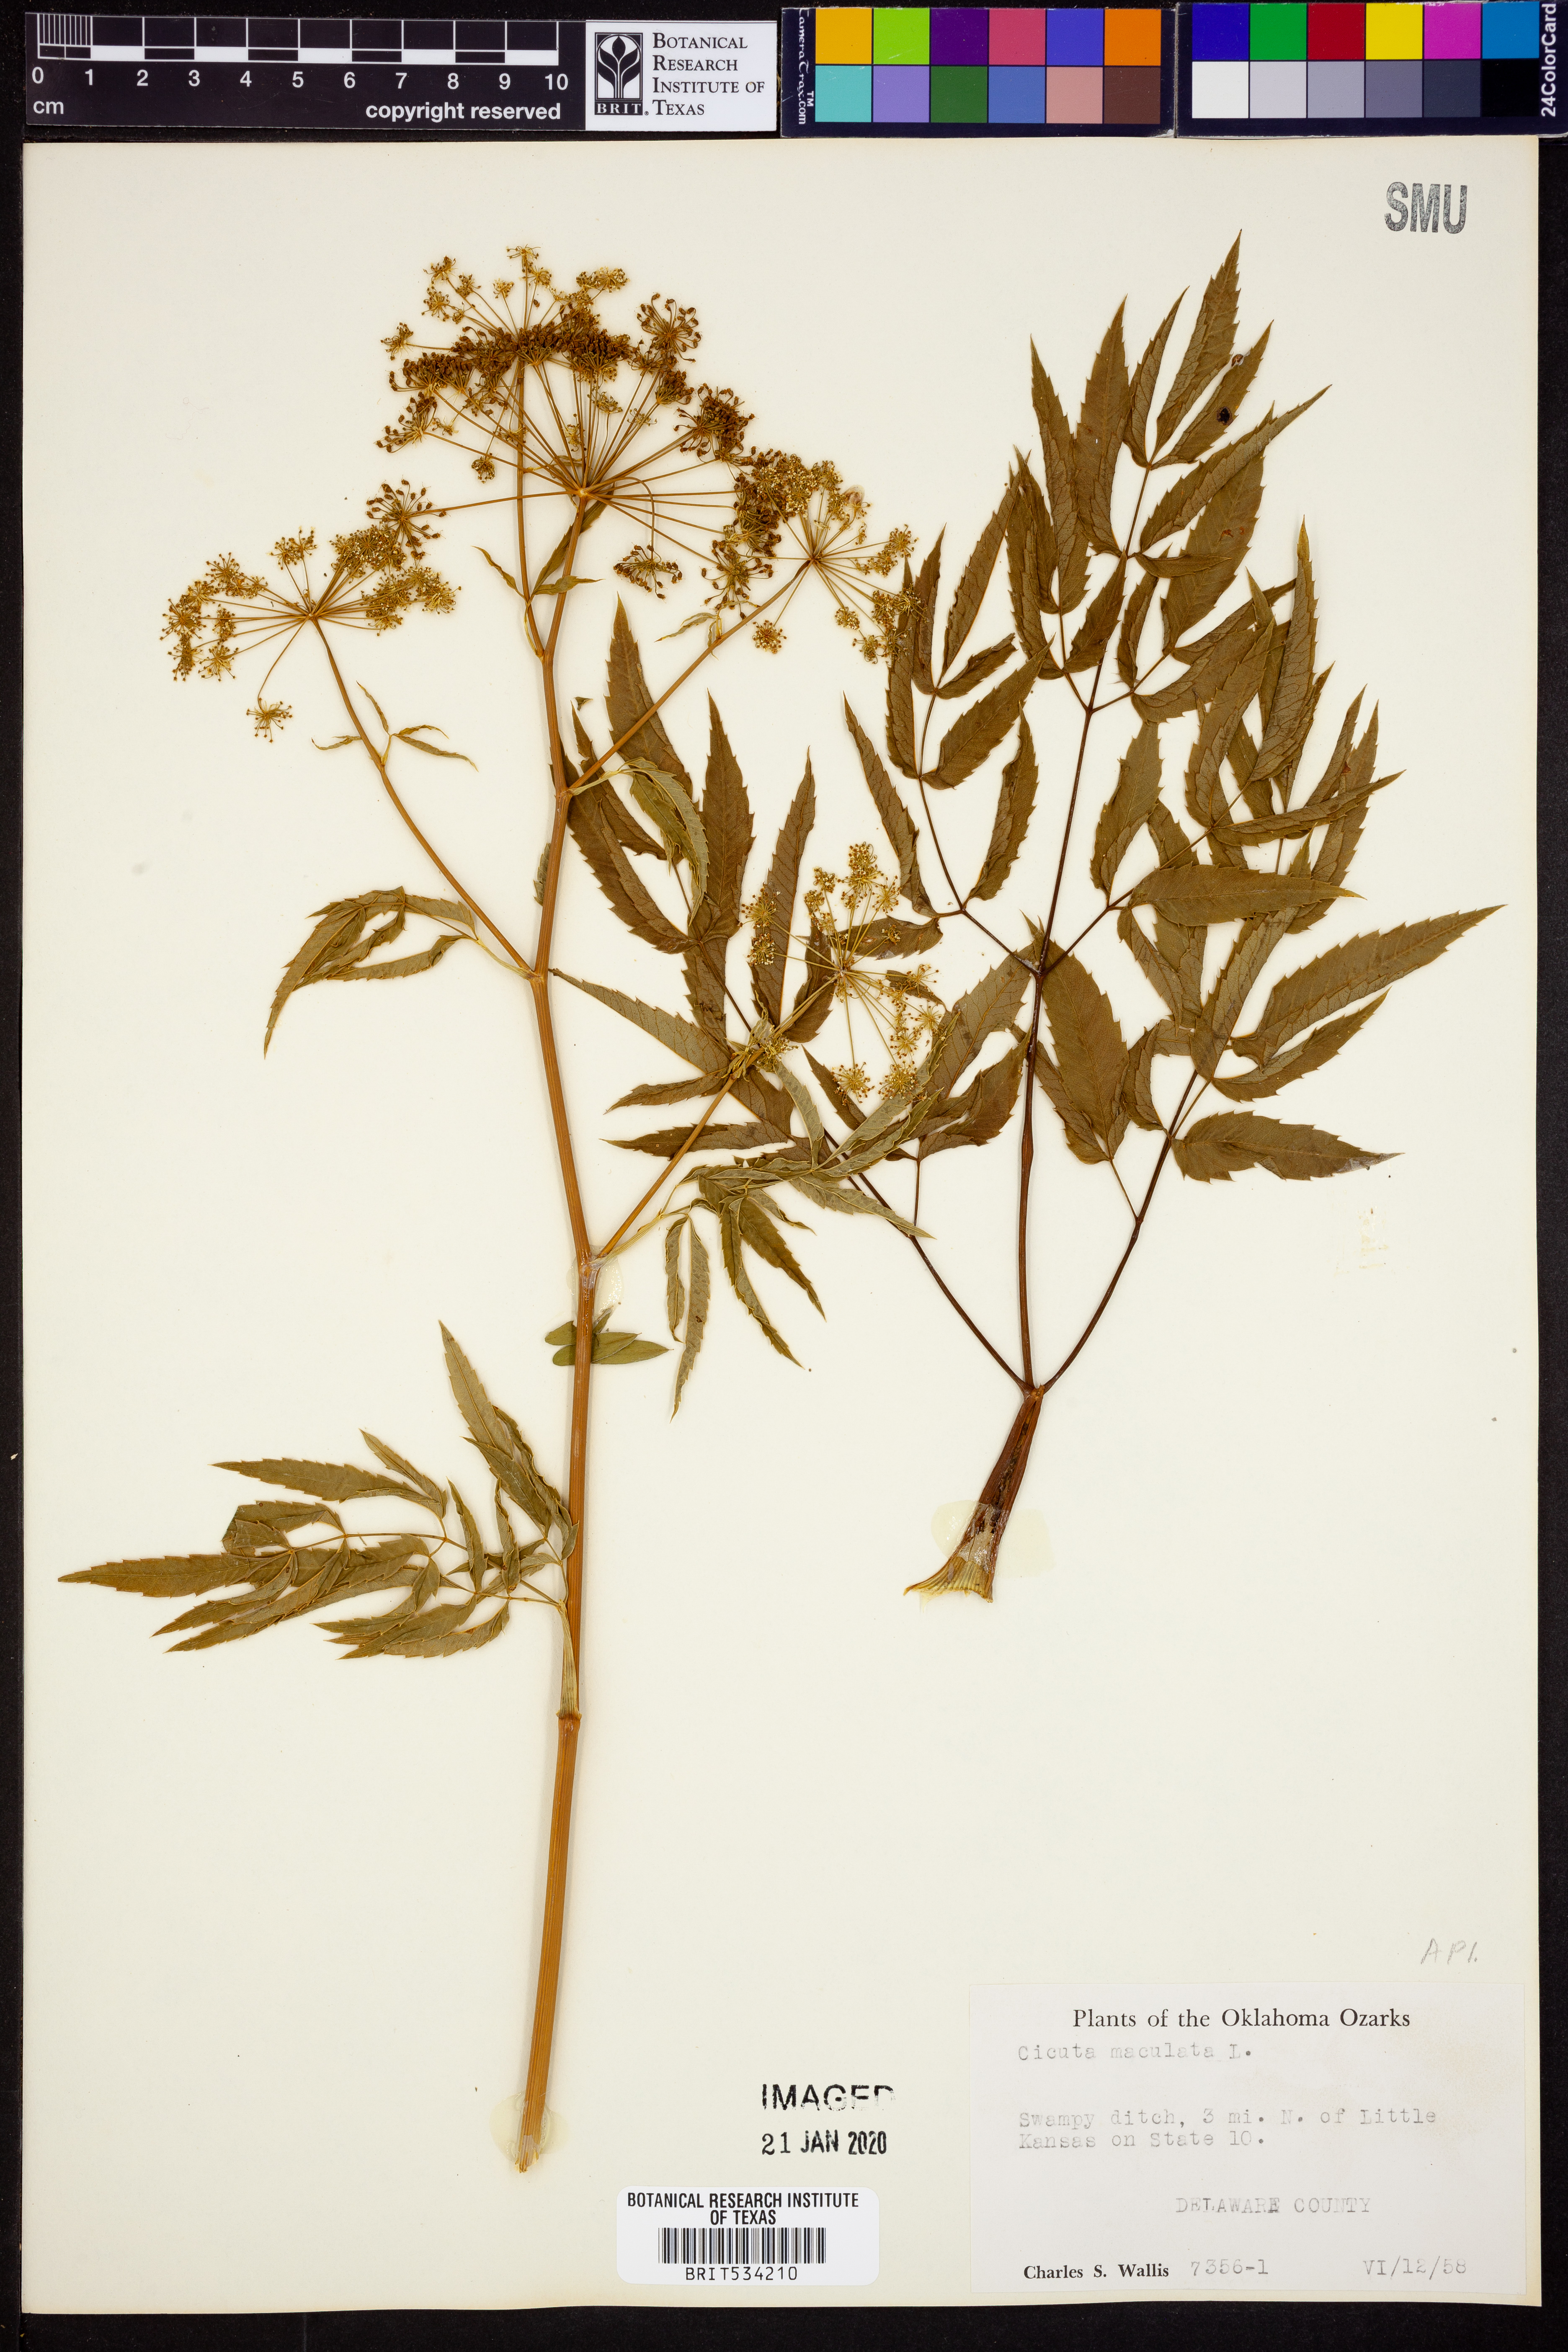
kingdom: Plantae
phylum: Tracheophyta
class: Magnoliopsida
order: Apiales
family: Apiaceae
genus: Cicuta
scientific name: Cicuta maculata
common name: Spotted cowbane
